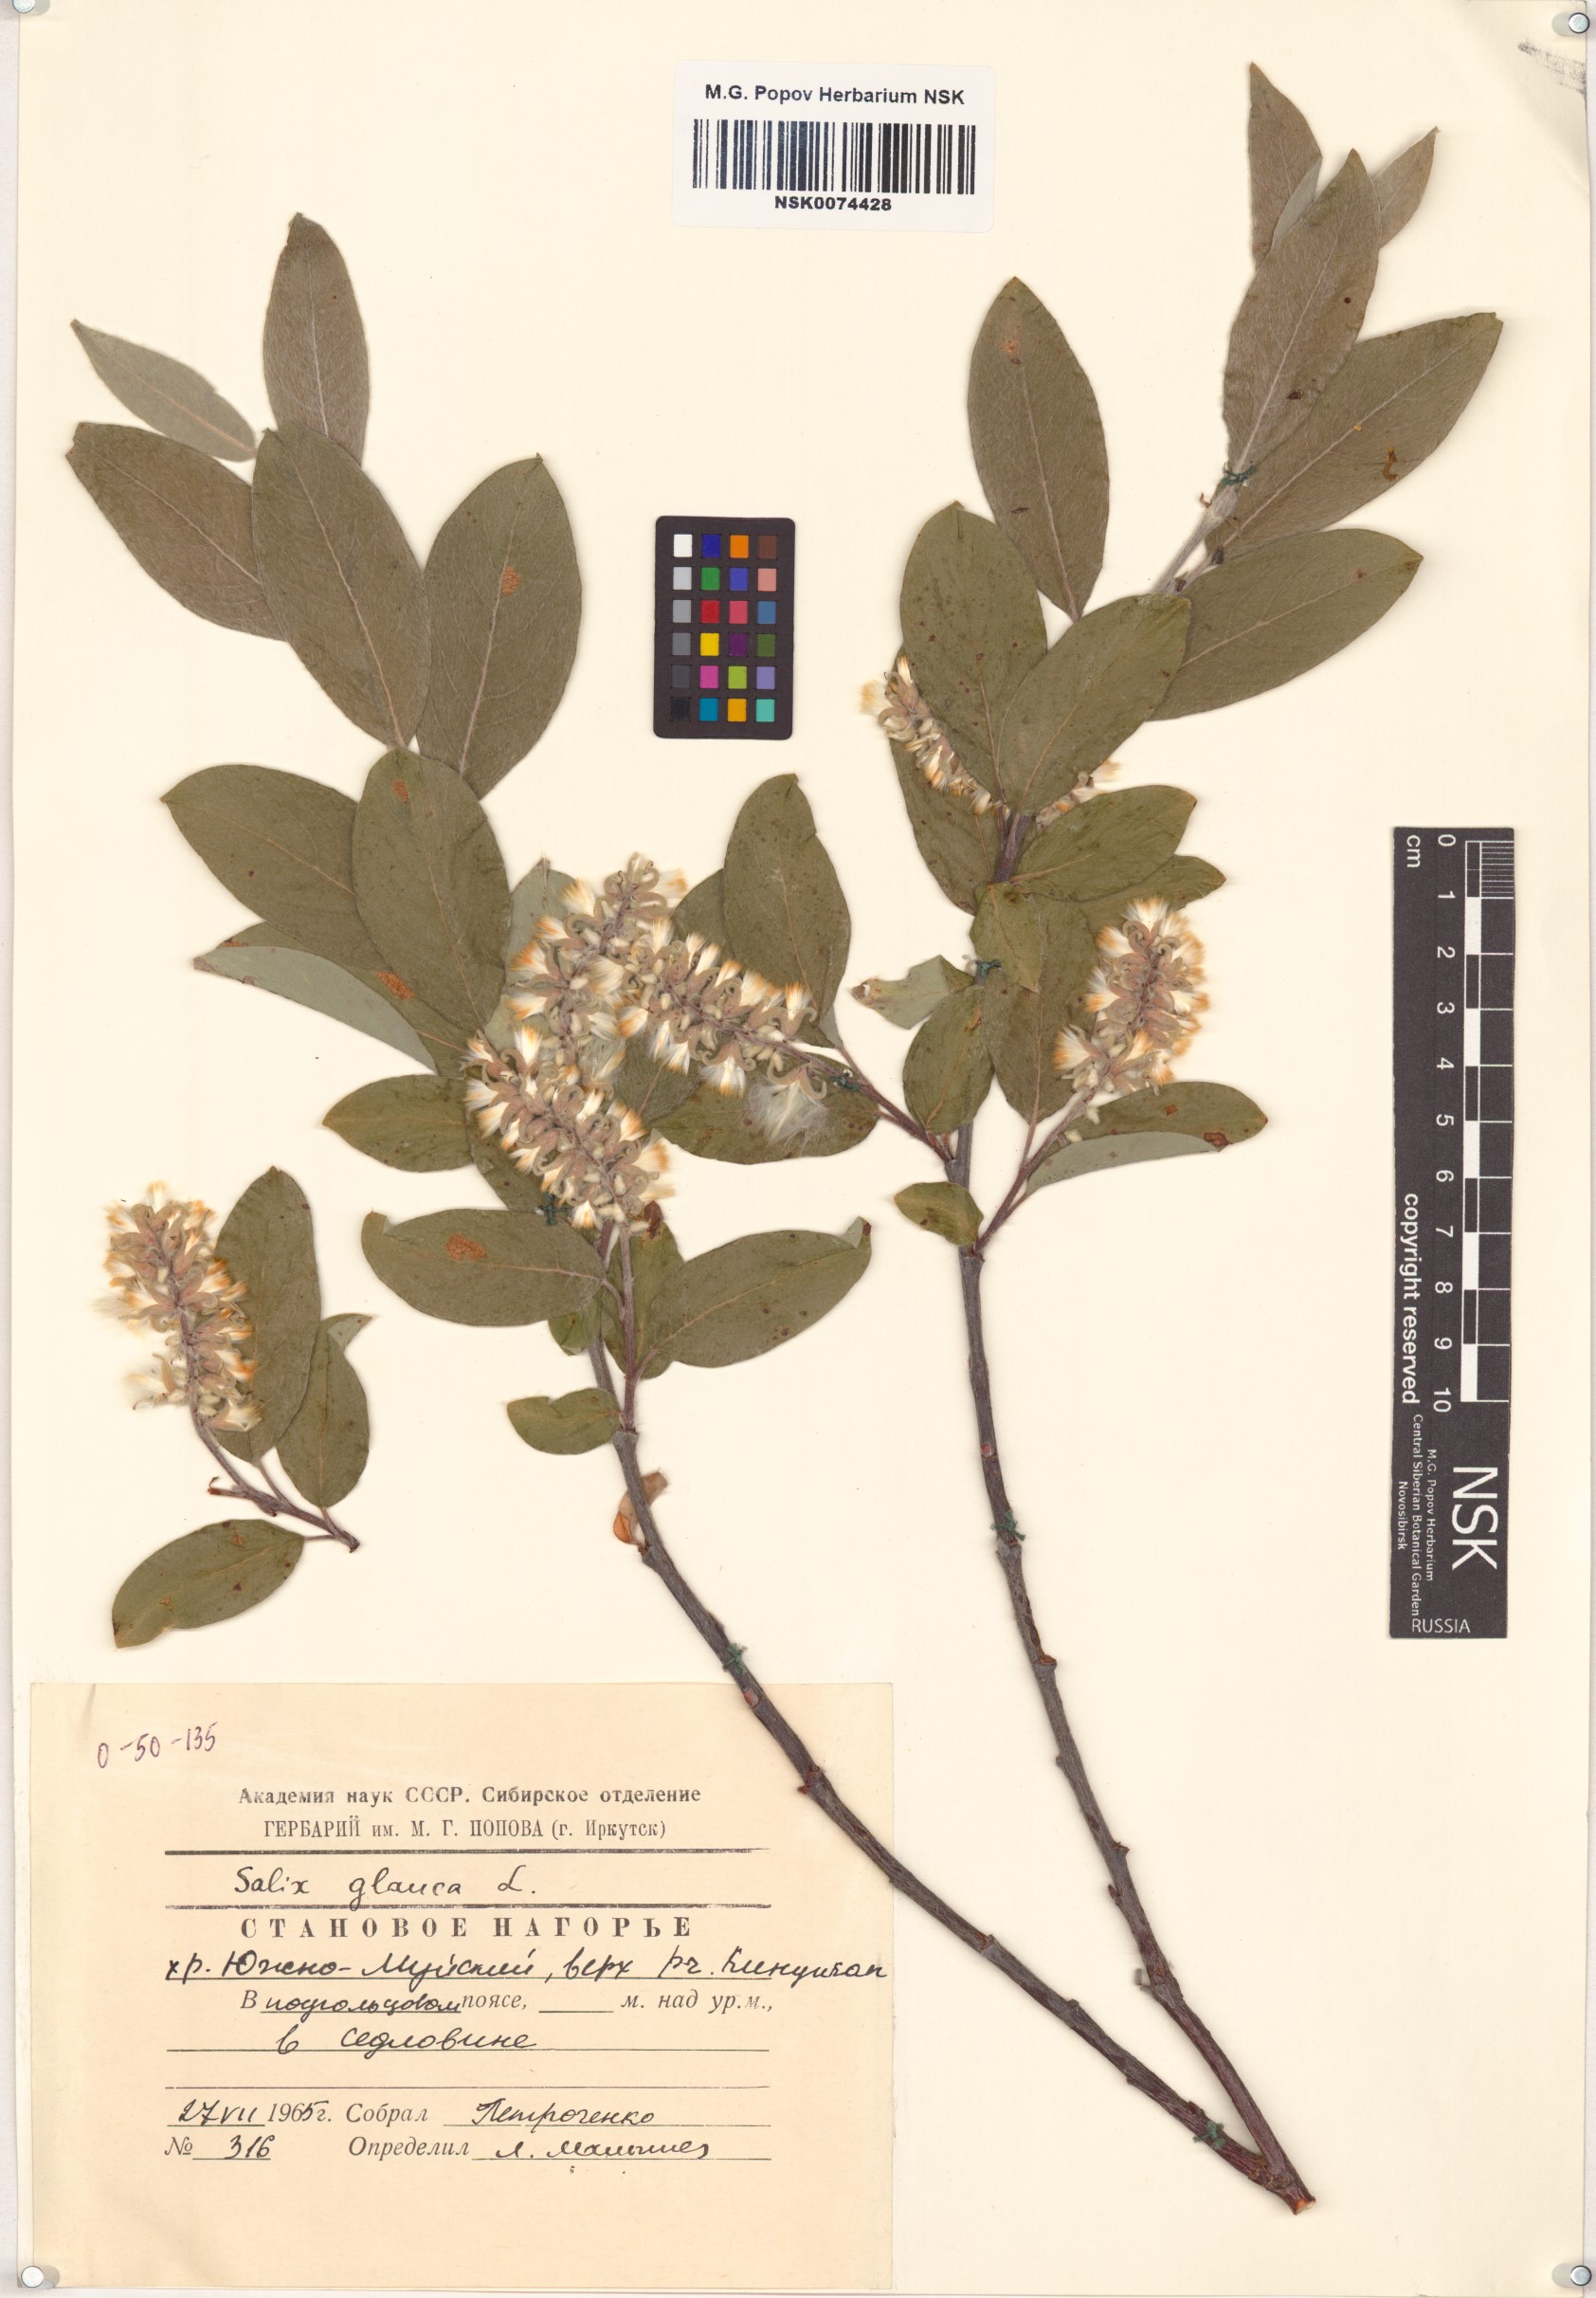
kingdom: Plantae
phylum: Tracheophyta
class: Magnoliopsida
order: Malpighiales
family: Salicaceae
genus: Salix
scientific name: Salix glauca
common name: Glaucous willow
